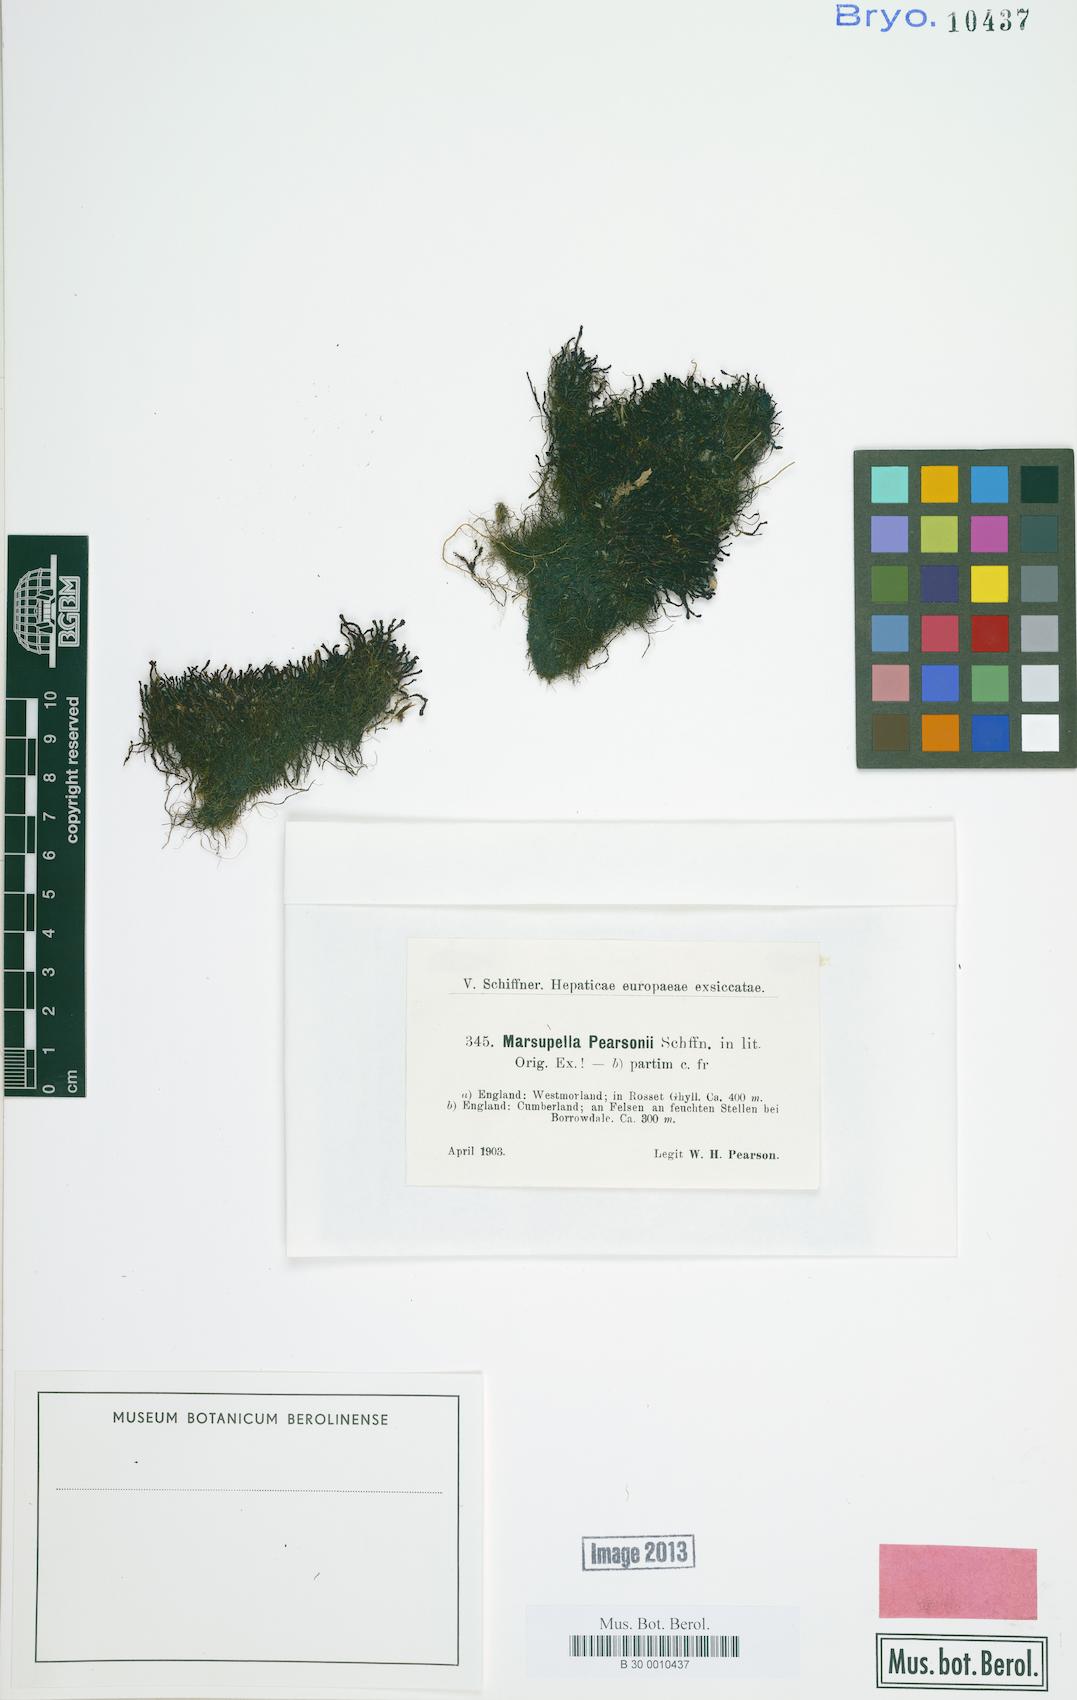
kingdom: Plantae
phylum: Marchantiophyta
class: Jungermanniopsida
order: Jungermanniales
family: Gymnomitriaceae
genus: Marsupella
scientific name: Marsupella emarginata
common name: Notched rustwort
